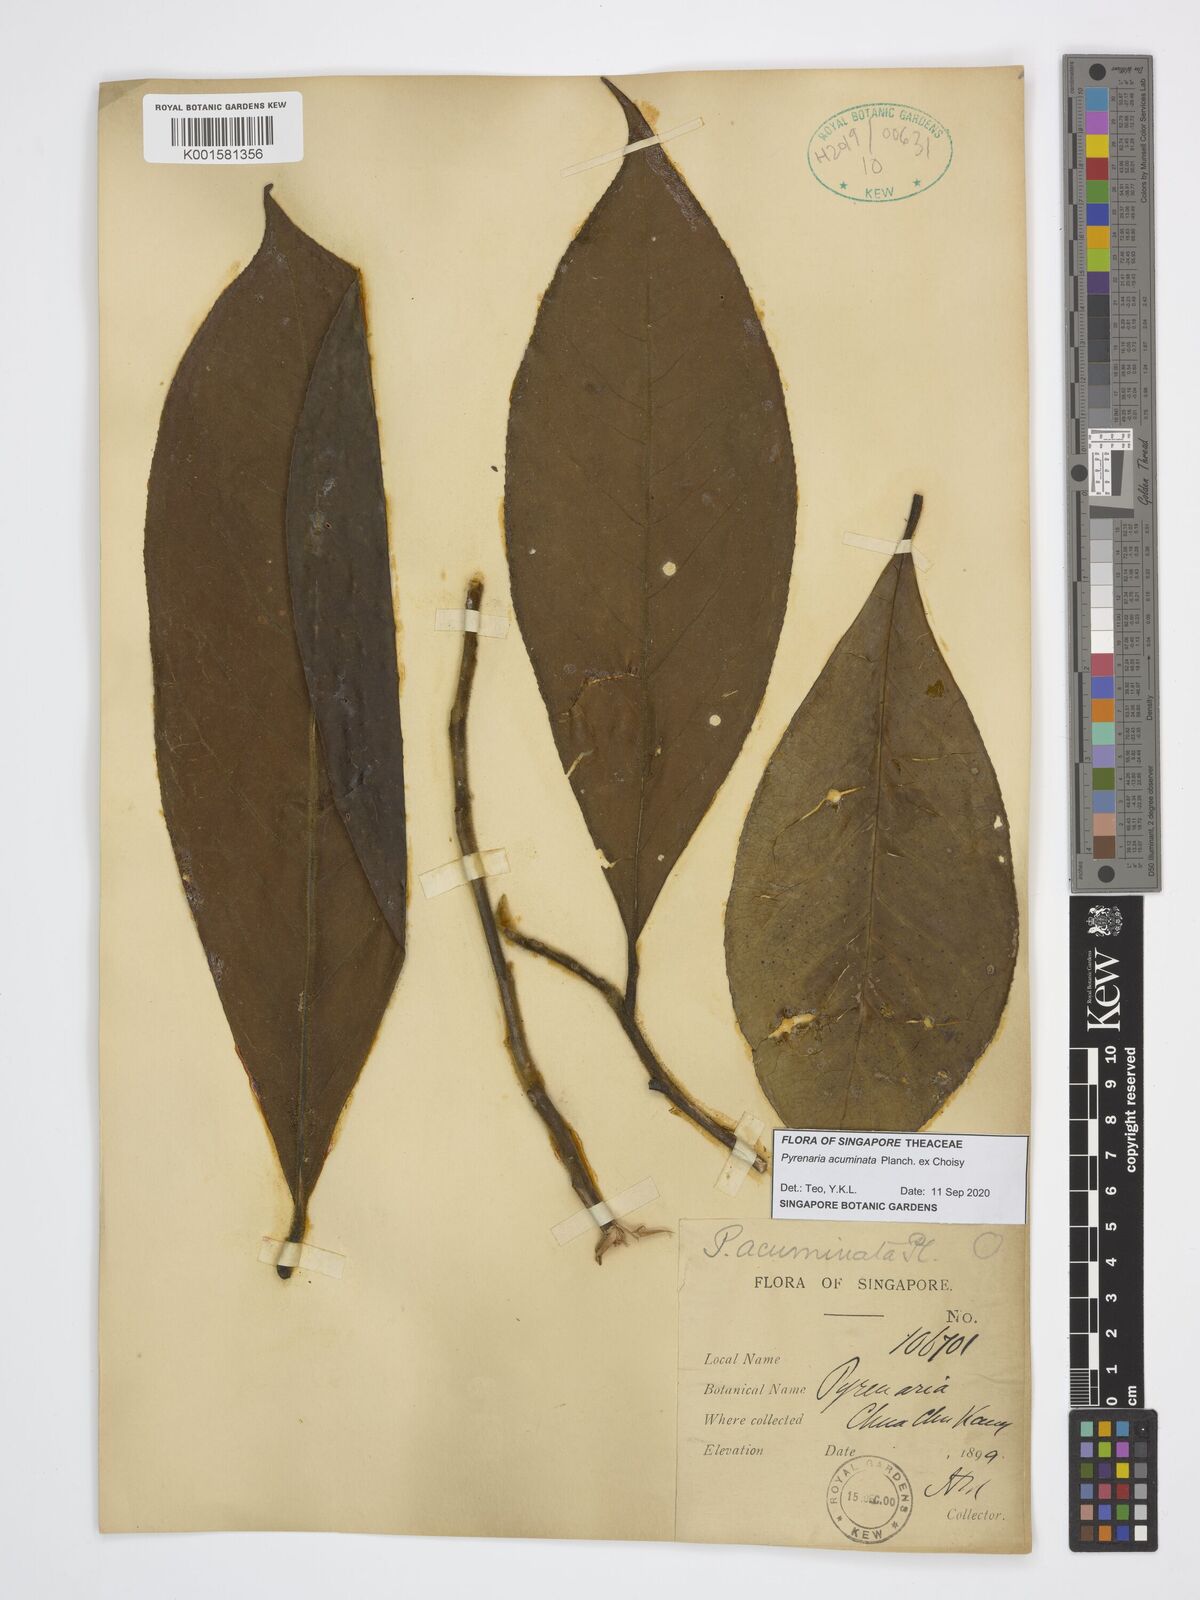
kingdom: Plantae
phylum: Tracheophyta
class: Magnoliopsida
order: Ericales
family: Theaceae
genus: Pyrenaria
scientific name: Pyrenaria acuminata
